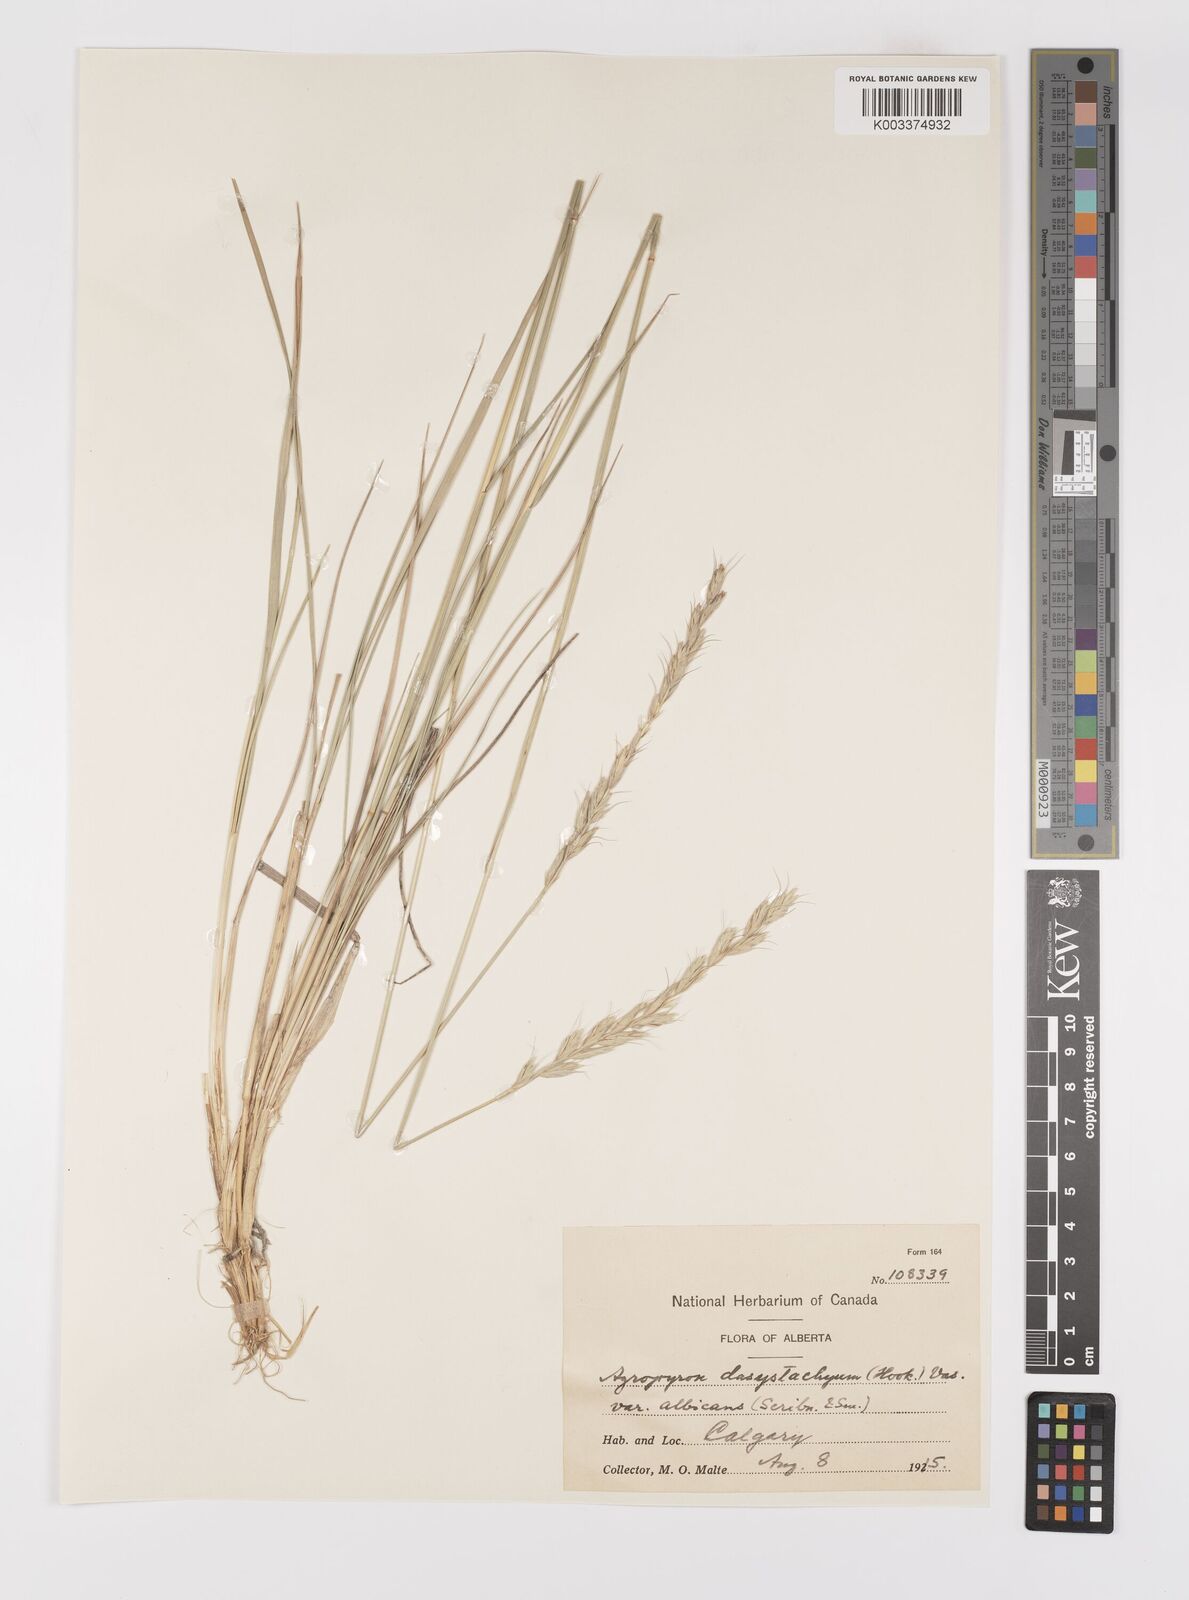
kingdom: Plantae
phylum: Tracheophyta
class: Liliopsida
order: Poales
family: Poaceae
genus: Elymus
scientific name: Elymus lanceolatus
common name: Thick-spike wheatgrass
